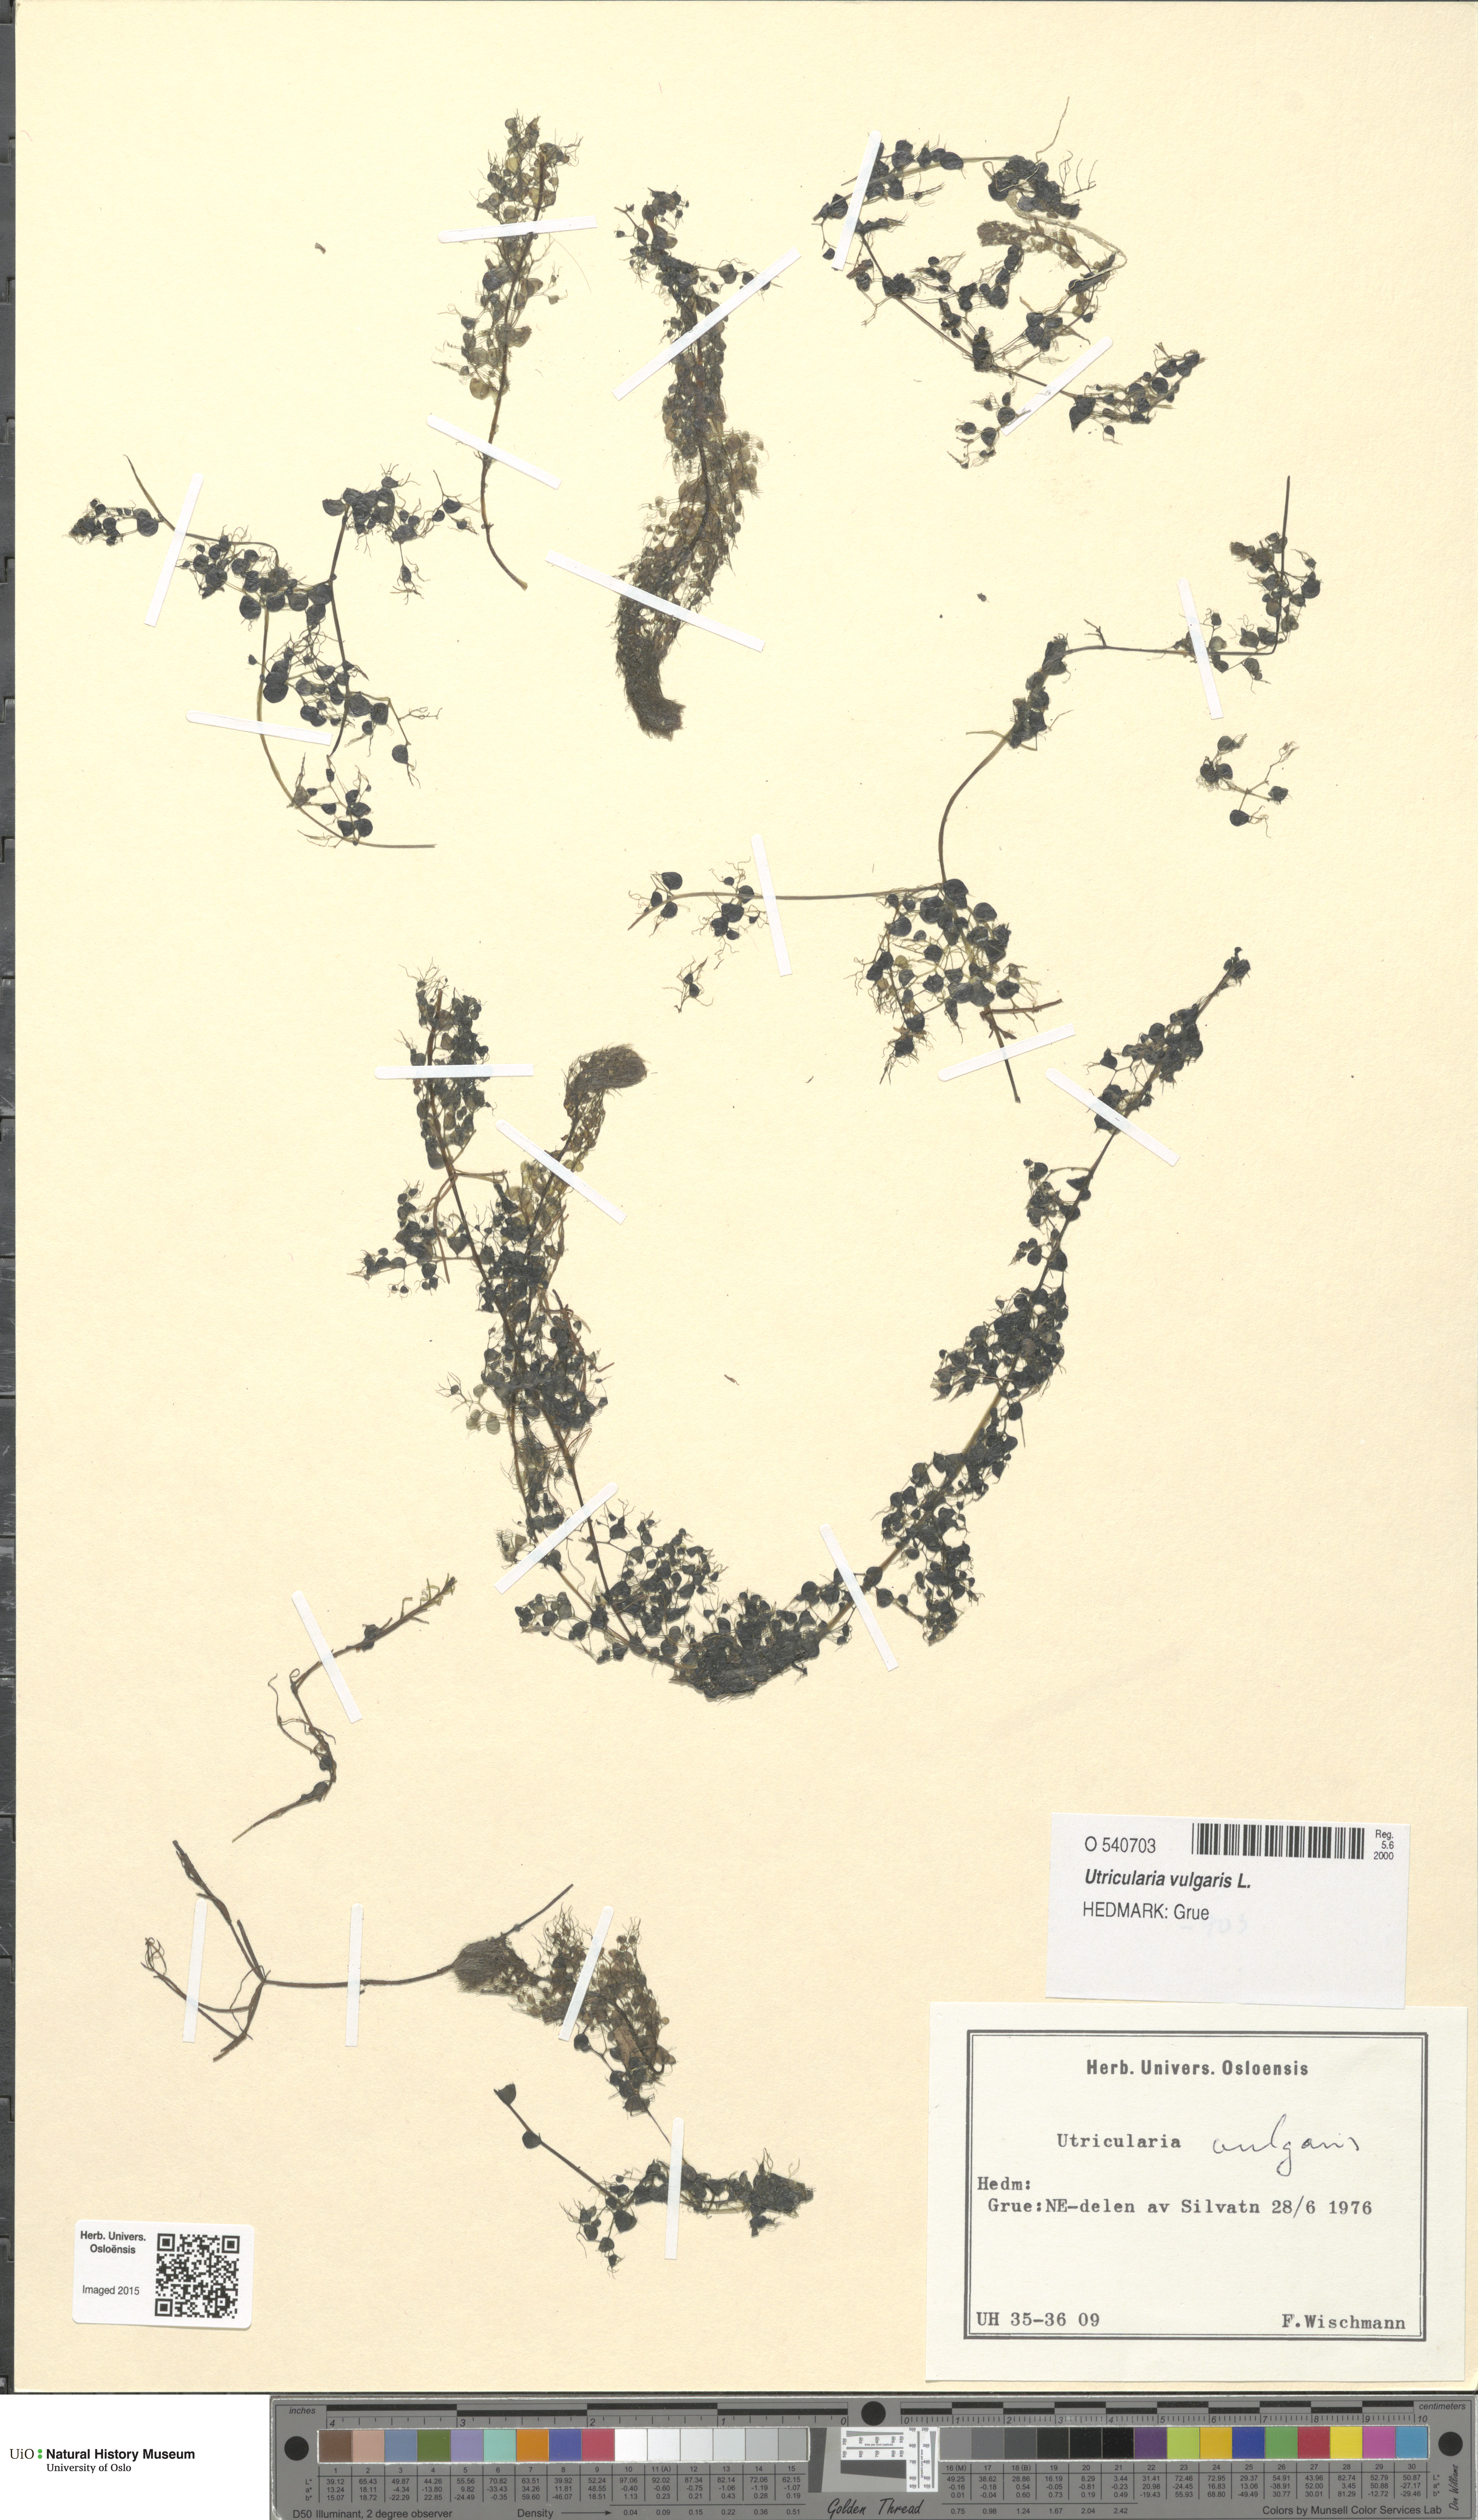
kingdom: Plantae
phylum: Tracheophyta
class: Magnoliopsida
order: Lamiales
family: Lentibulariaceae
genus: Utricularia
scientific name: Utricularia vulgaris
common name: Greater bladderwort
